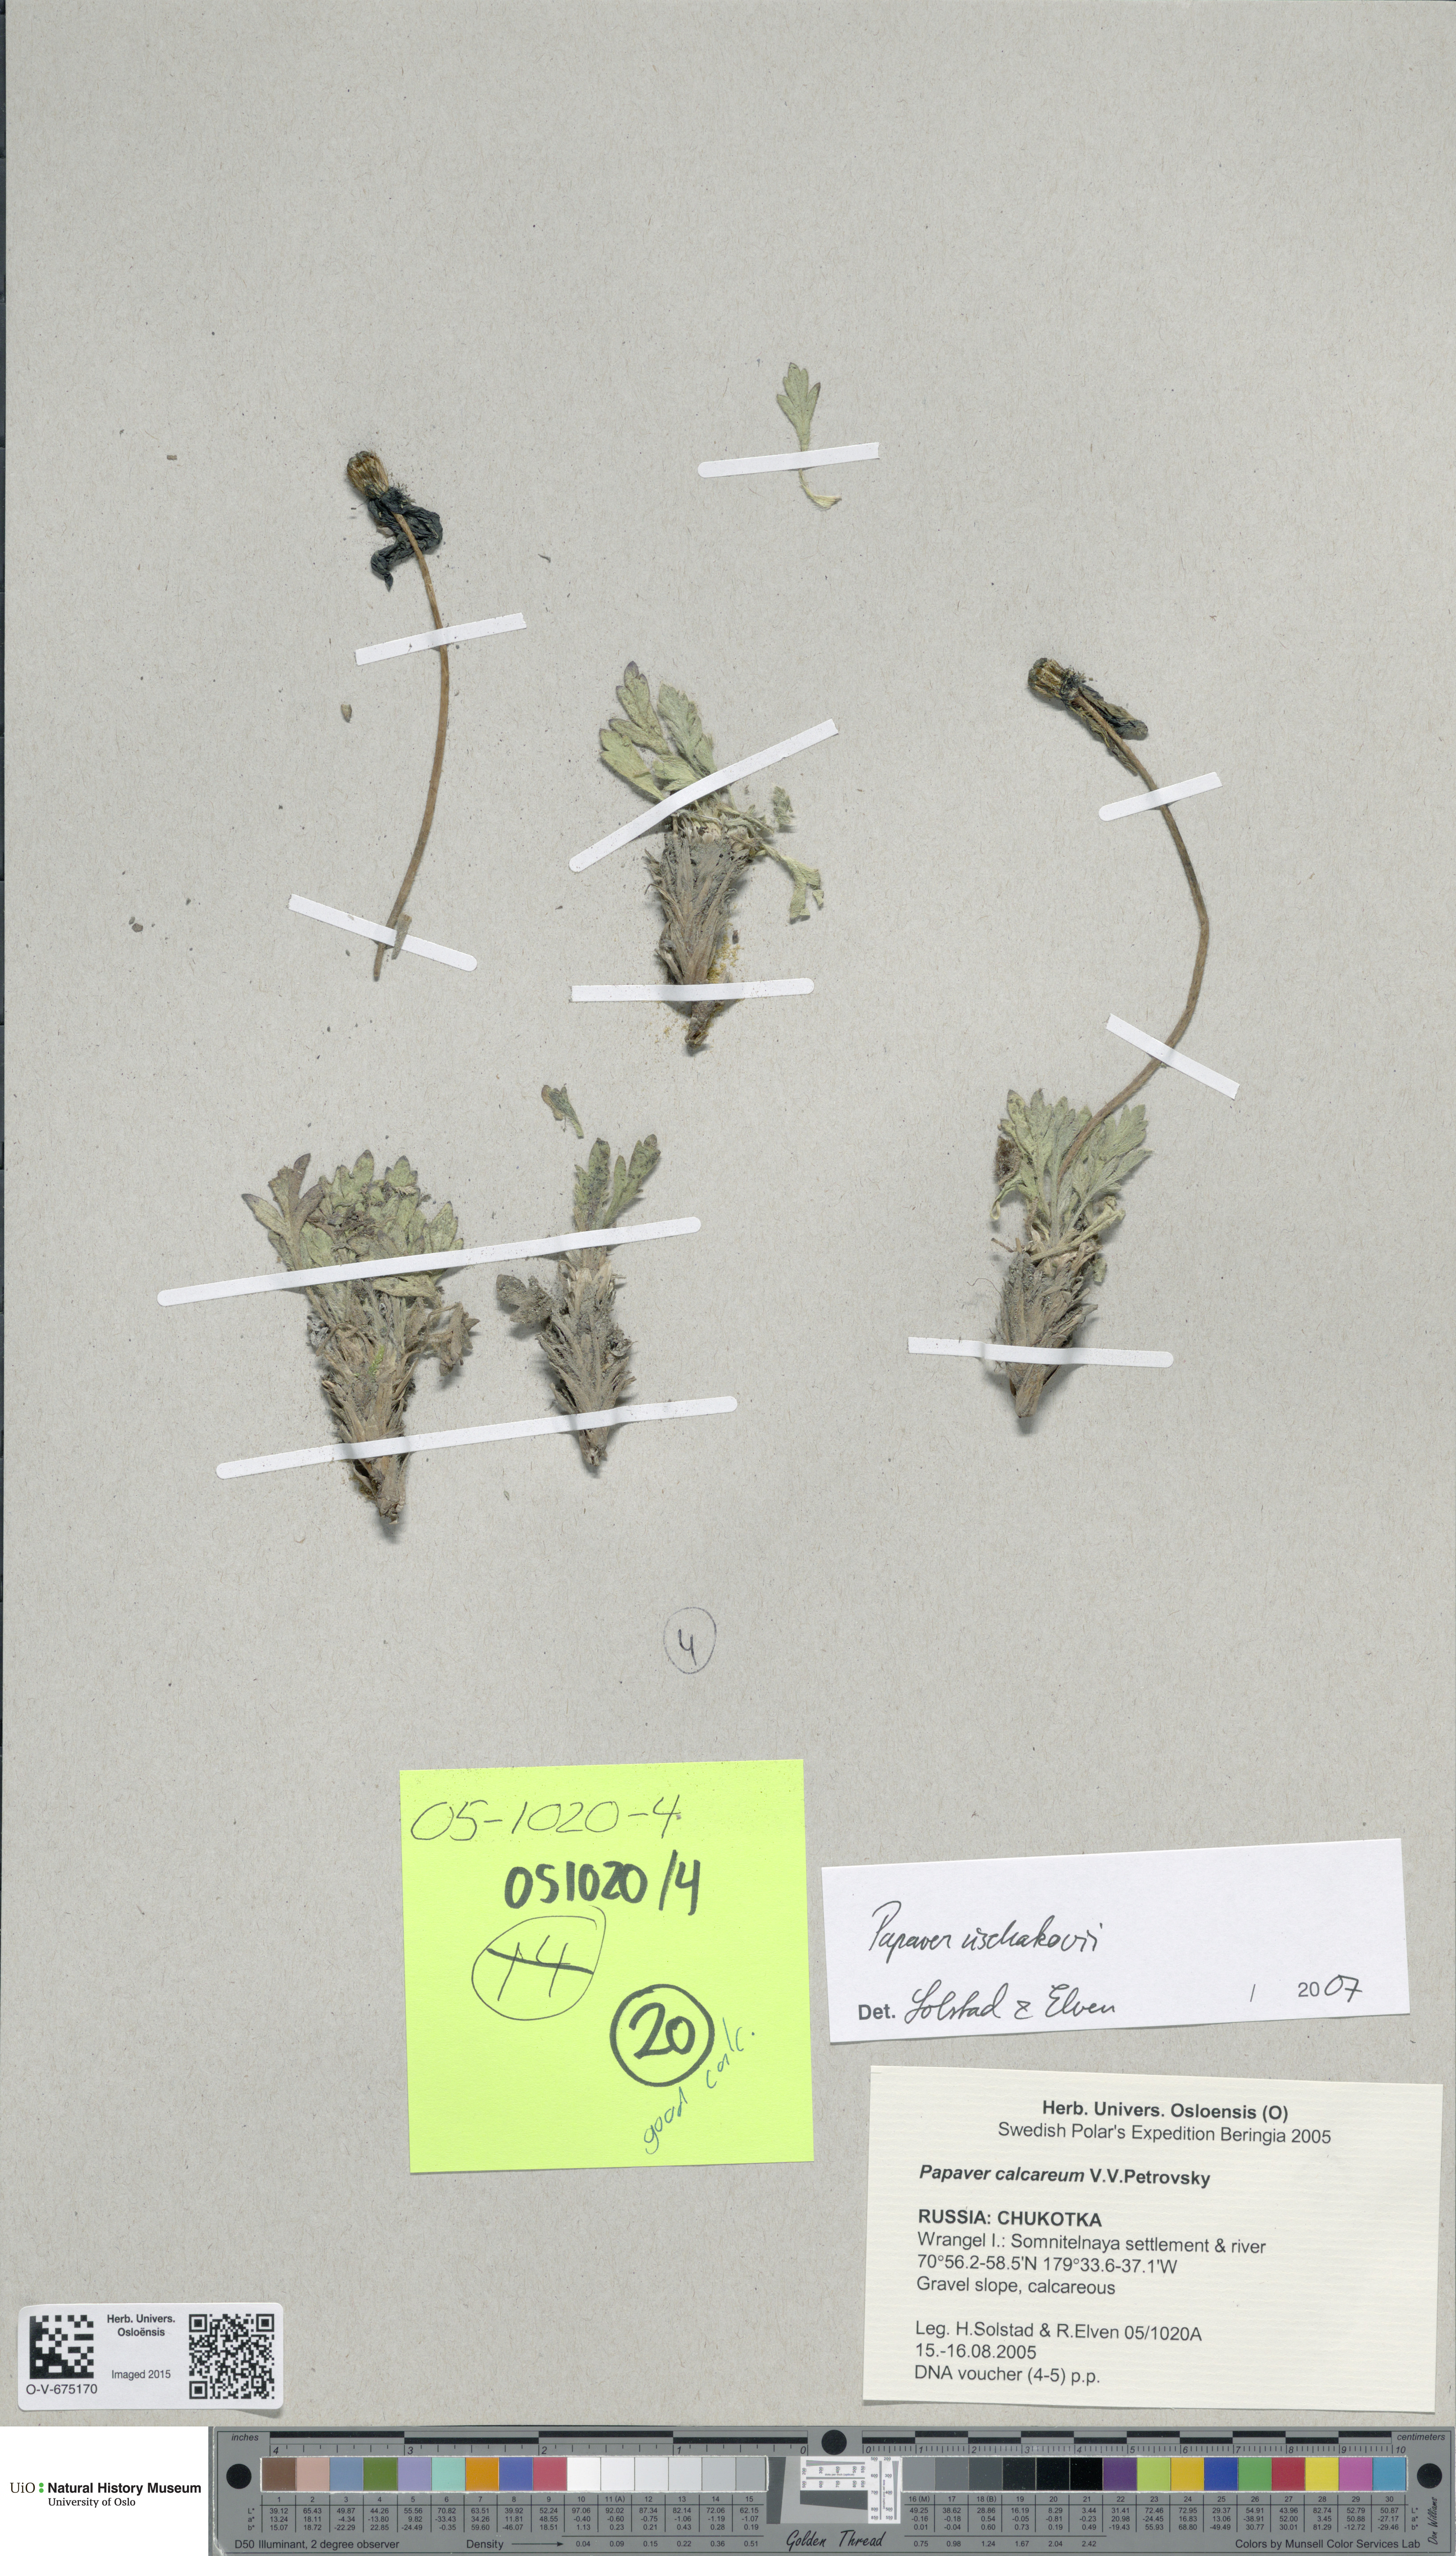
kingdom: Plantae
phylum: Tracheophyta
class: Magnoliopsida
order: Ranunculales
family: Papaveraceae
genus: Papaver
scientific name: Papaver radicatum
